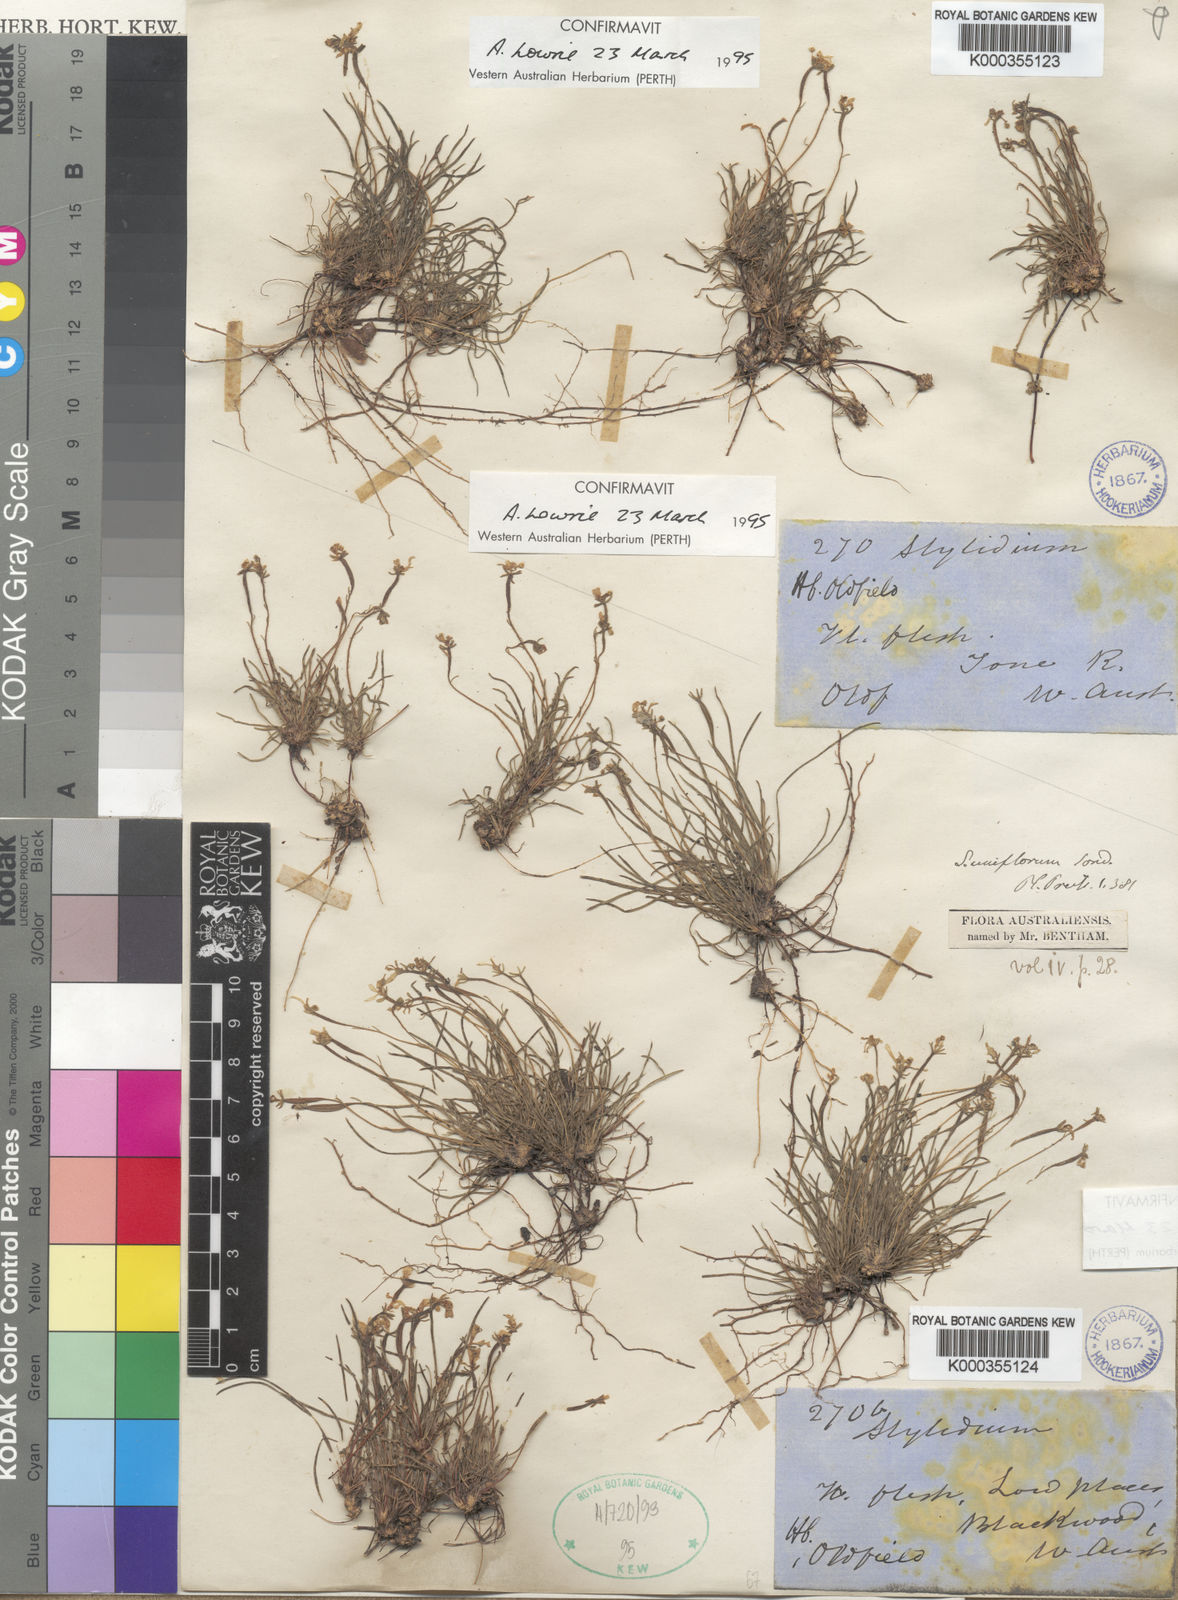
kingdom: Plantae
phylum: Tracheophyta
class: Magnoliopsida
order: Asterales
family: Stylidiaceae
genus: Stylidium
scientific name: Stylidium uniflorum
